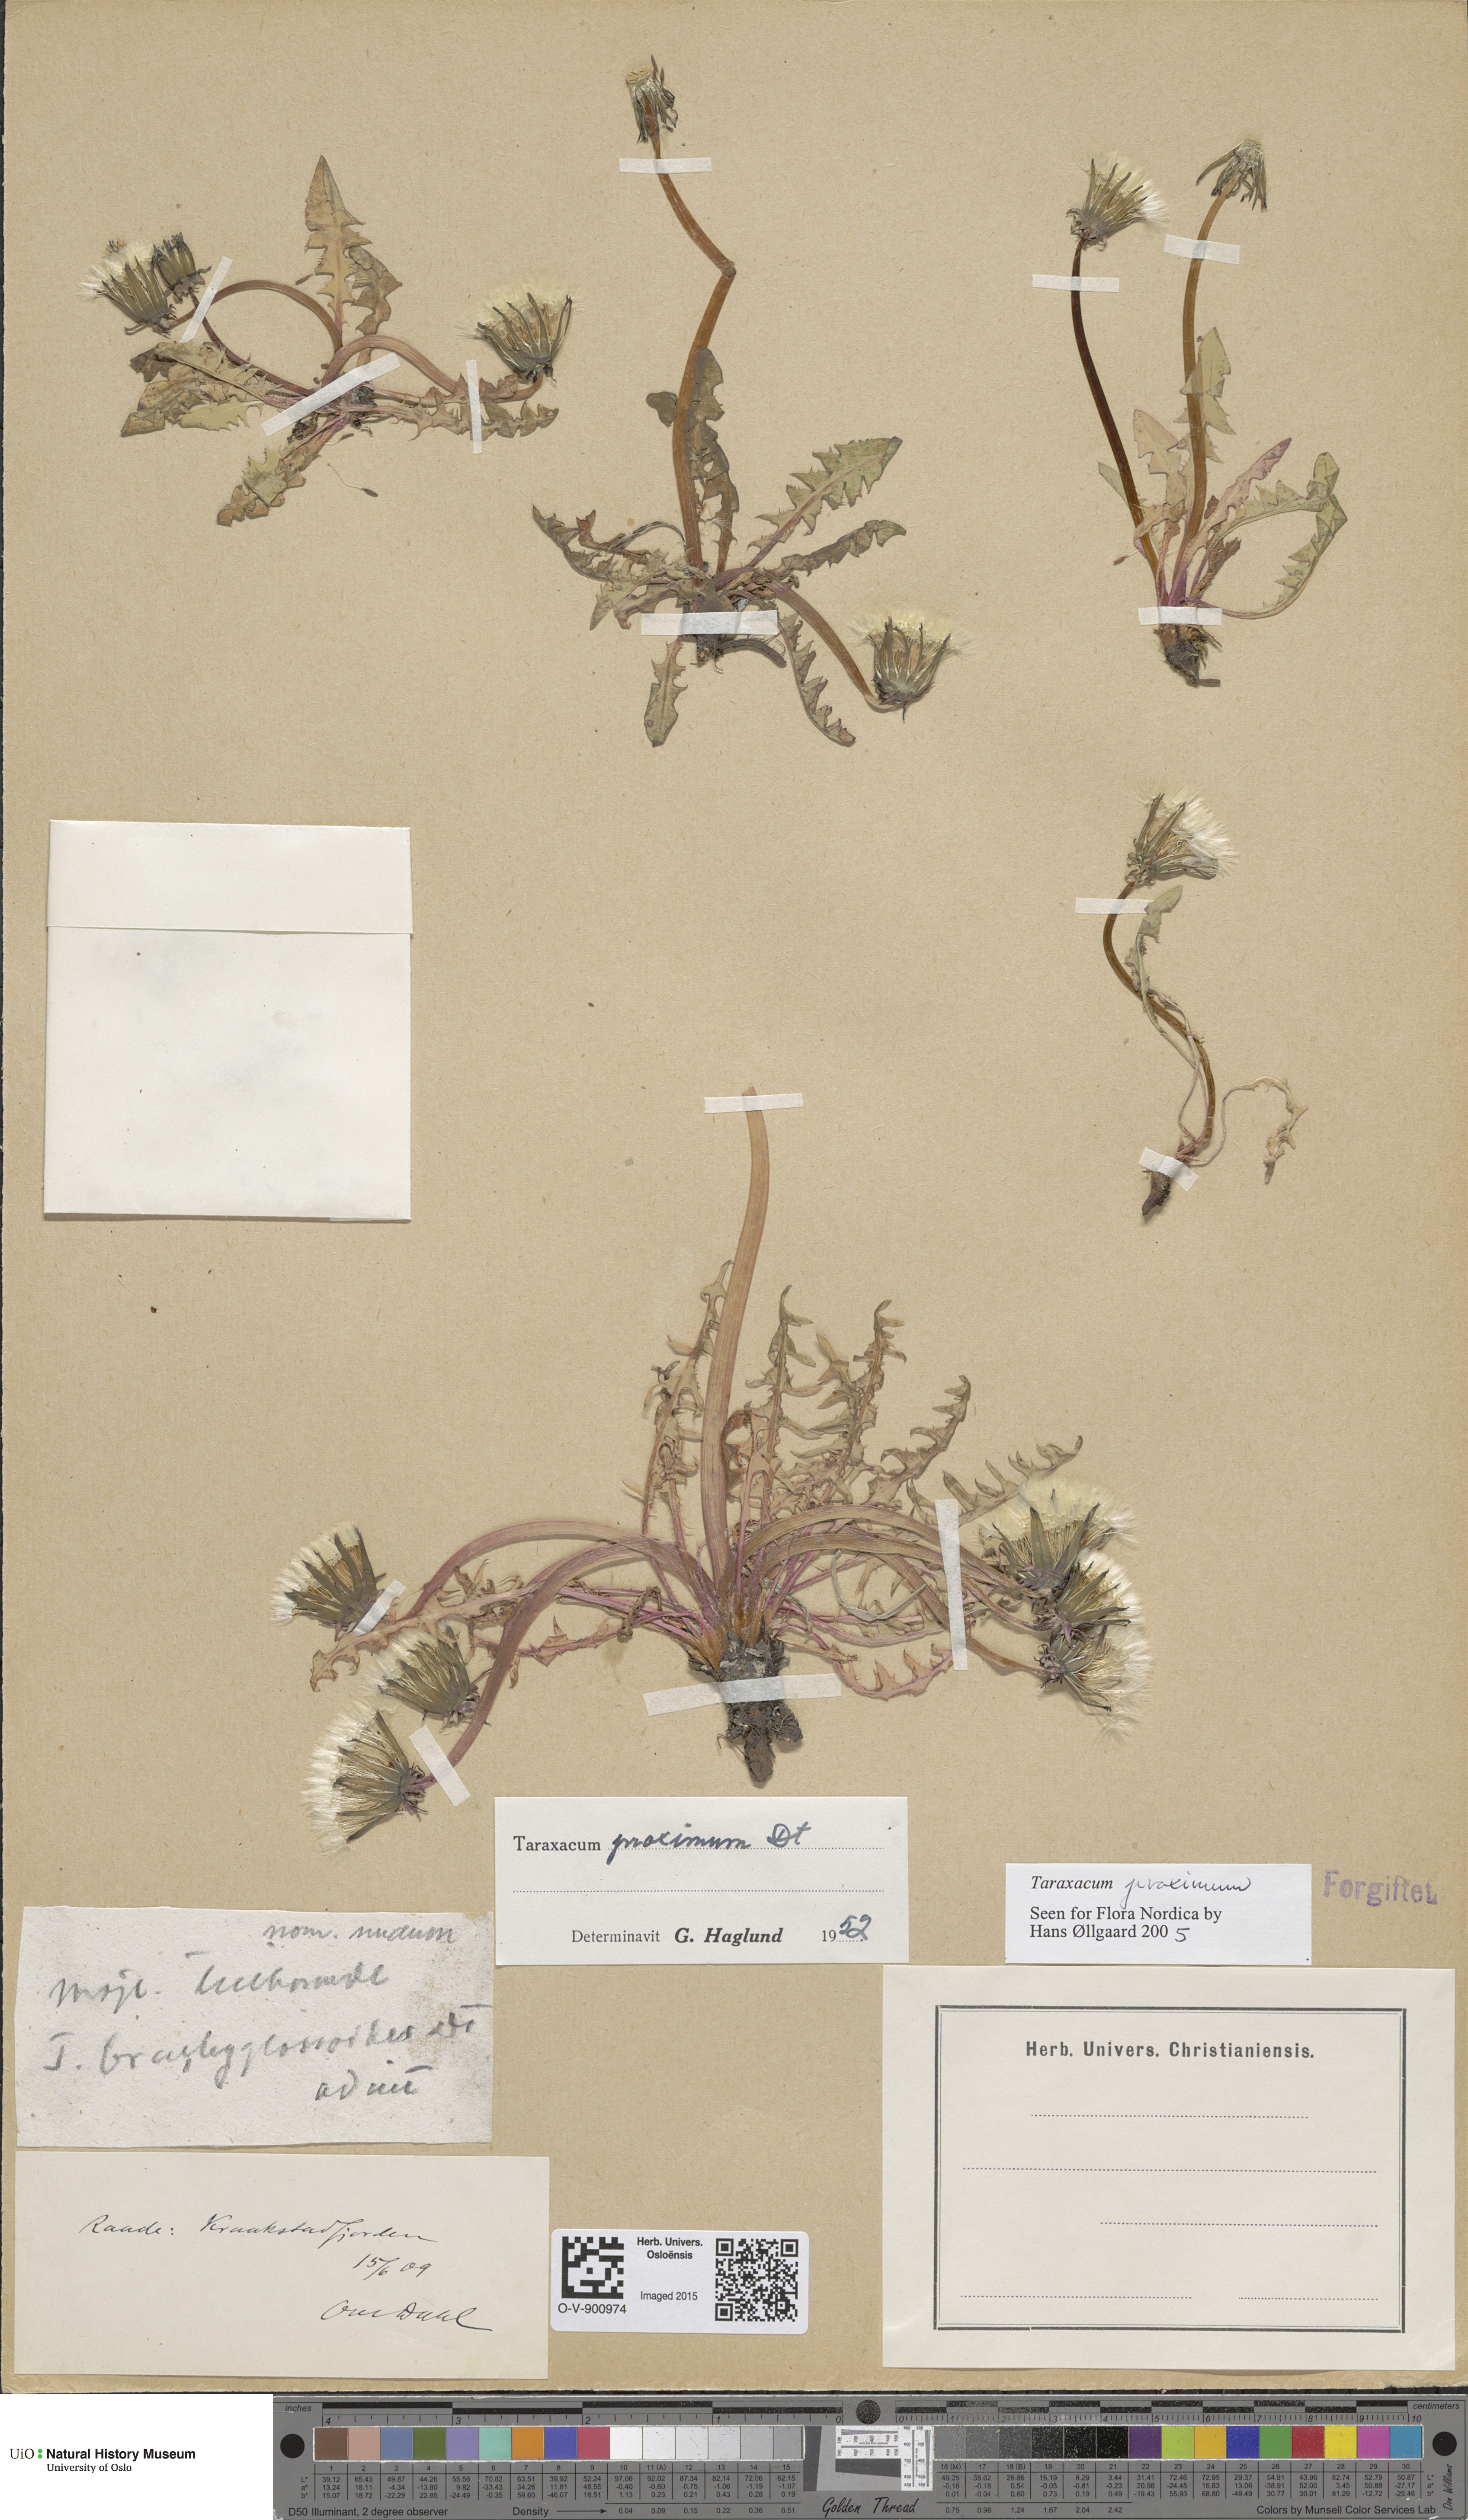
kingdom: Plantae
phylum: Tracheophyta
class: Magnoliopsida
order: Asterales
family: Asteraceae
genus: Taraxacum
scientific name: Taraxacum proximum
